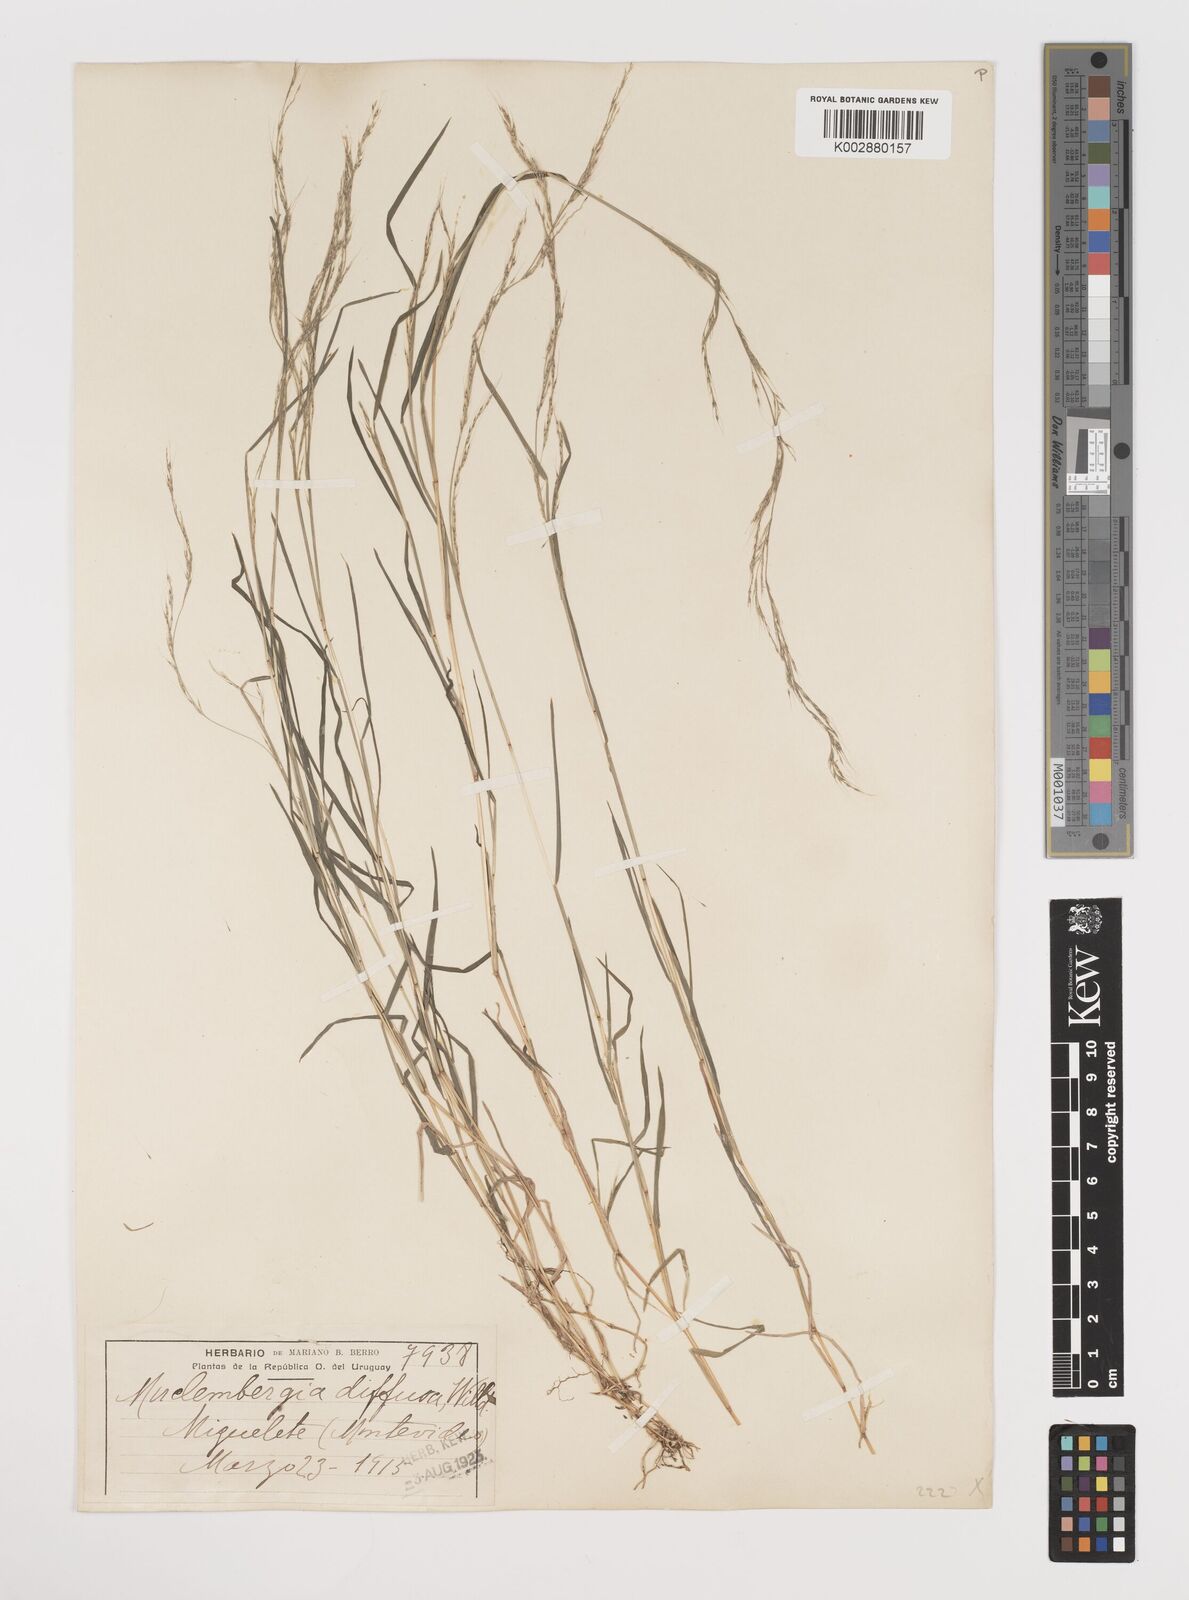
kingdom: Plantae
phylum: Tracheophyta
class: Liliopsida
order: Poales
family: Poaceae
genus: Muhlenbergia
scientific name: Muhlenbergia schreberi
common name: Nimblewill
